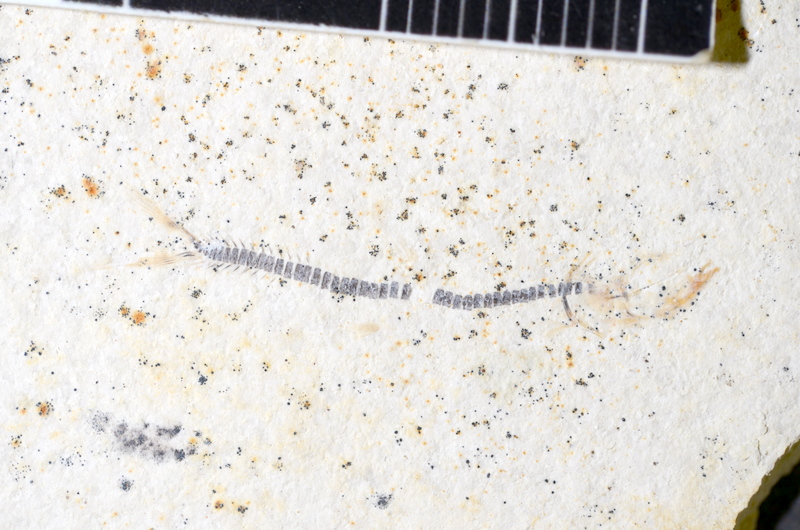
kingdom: Animalia
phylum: Chordata
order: Salmoniformes
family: Orthogonikleithridae
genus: Orthogonikleithrus
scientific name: Orthogonikleithrus hoelli
